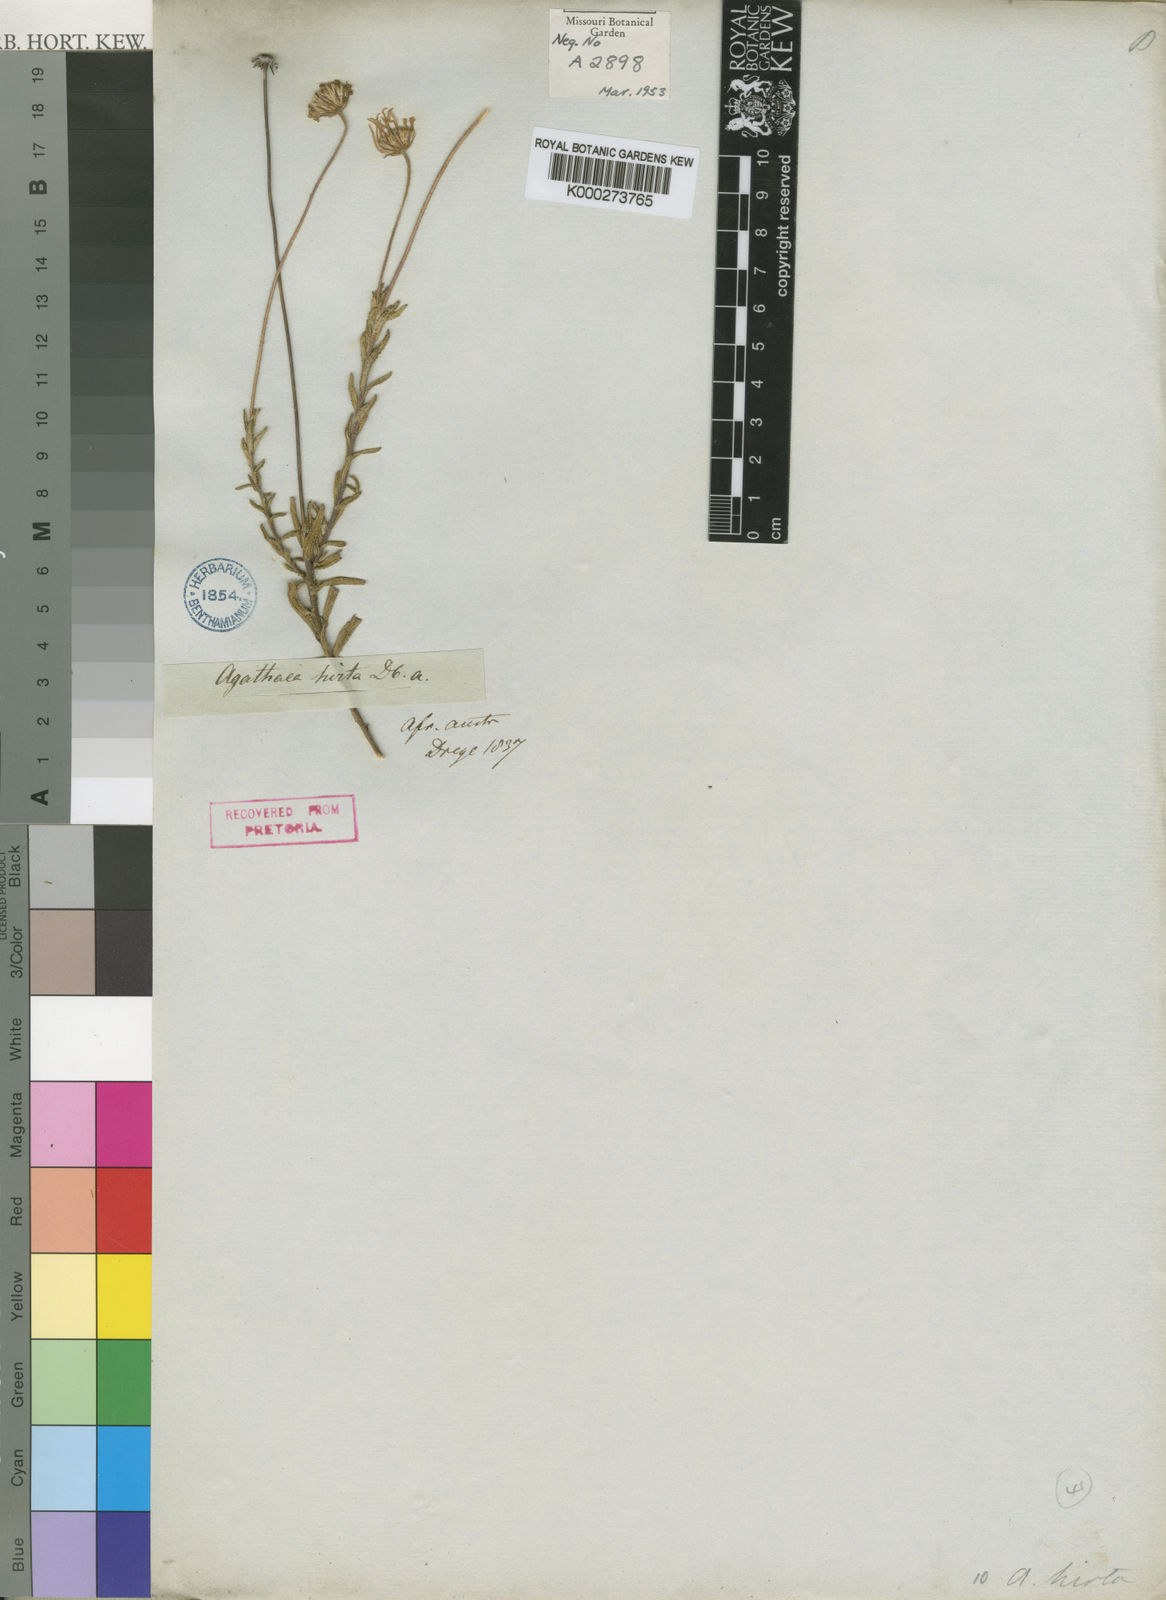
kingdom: Plantae
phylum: Tracheophyta
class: Magnoliopsida
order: Asterales
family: Asteraceae
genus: Felicia
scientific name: Felicia aculeata
